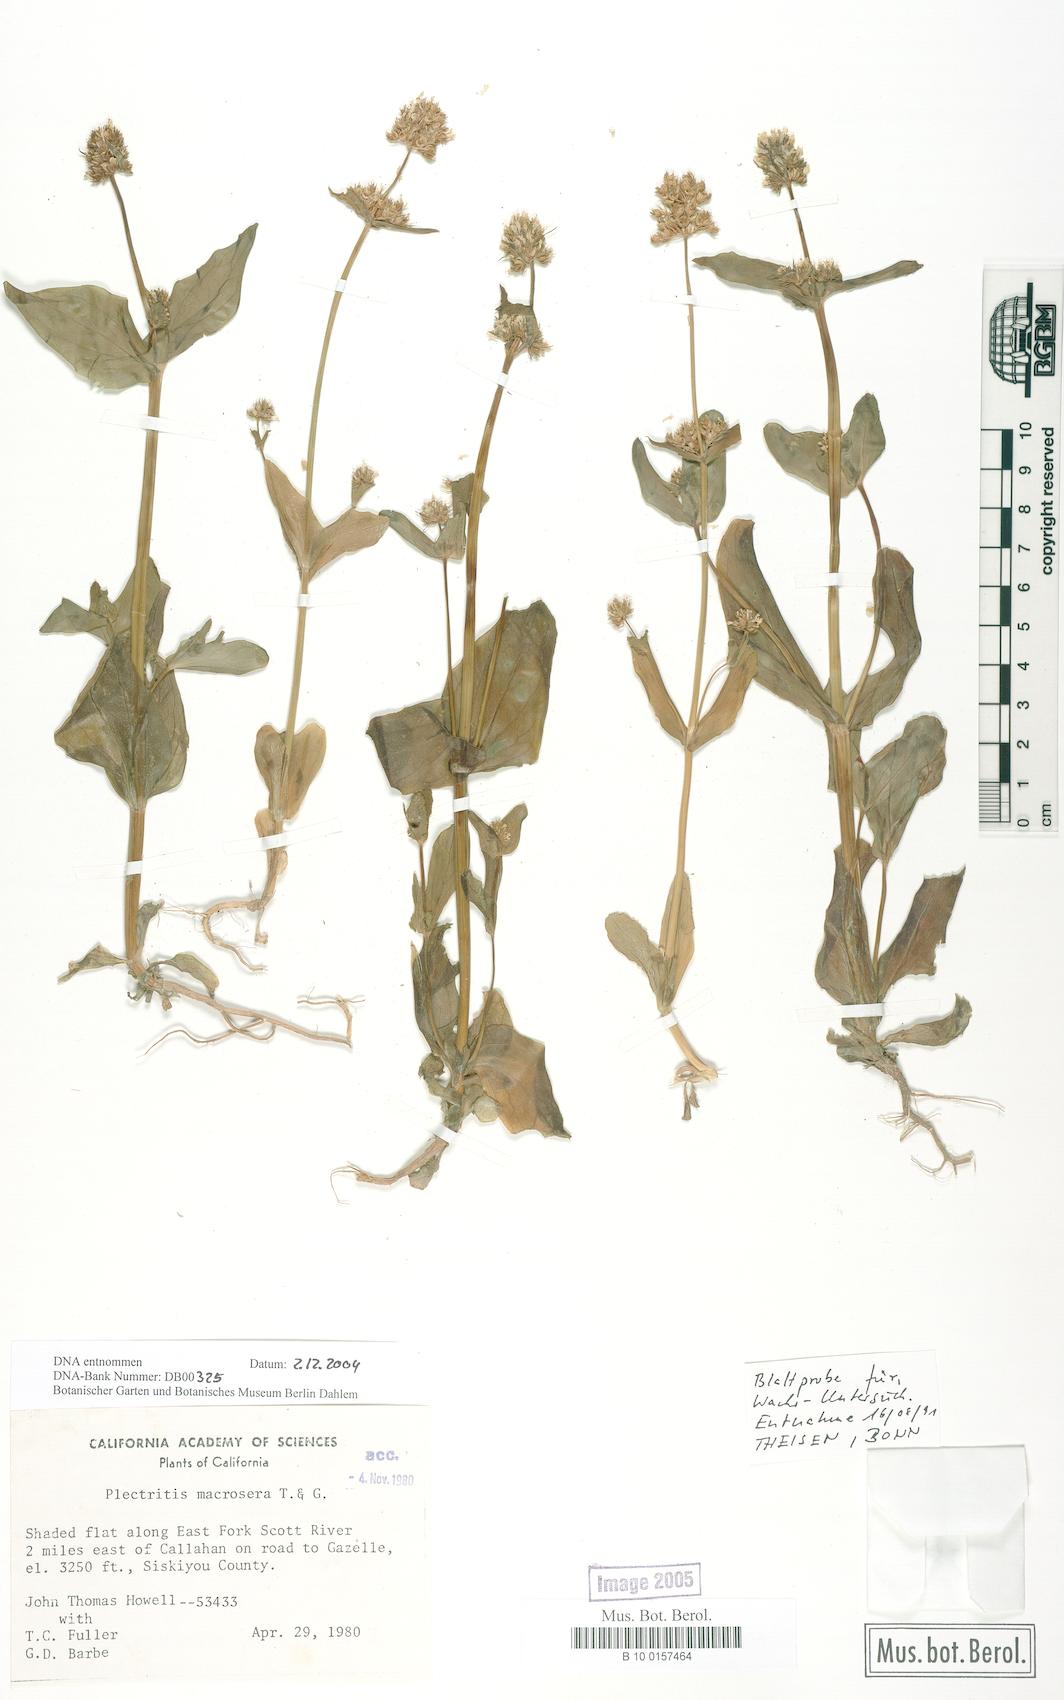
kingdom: Plantae
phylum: Tracheophyta
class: Magnoliopsida
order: Dipsacales
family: Caprifoliaceae
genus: Plectritis
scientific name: Plectritis macroptera
